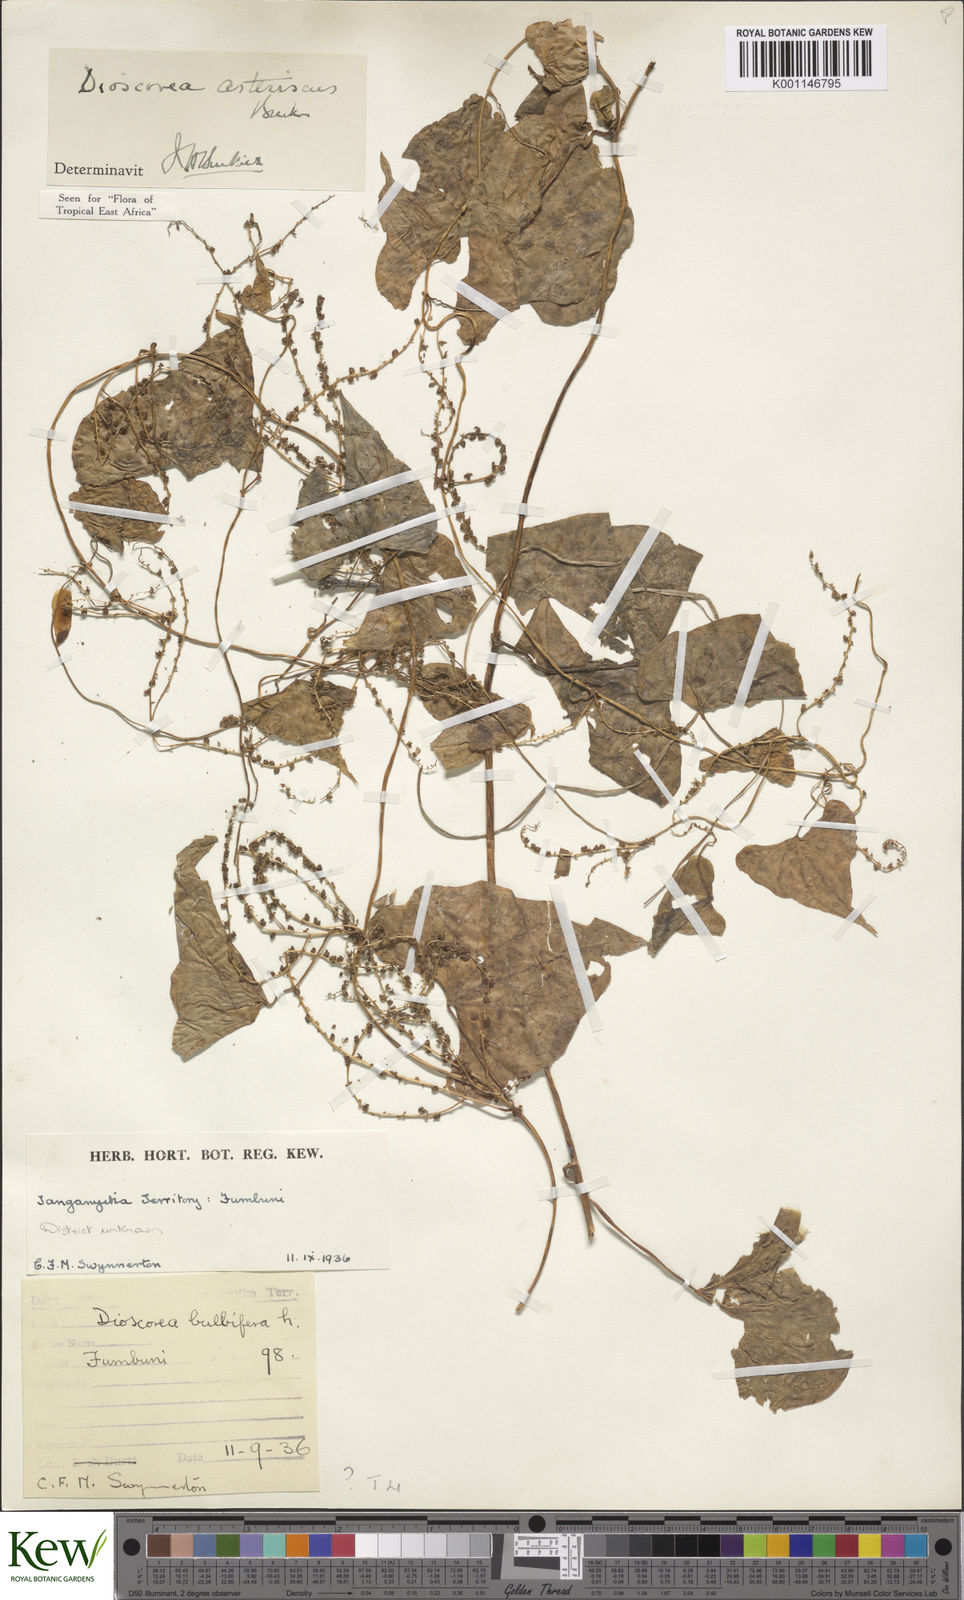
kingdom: Plantae
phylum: Tracheophyta
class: Liliopsida
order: Dioscoreales
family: Dioscoreaceae
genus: Dioscorea
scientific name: Dioscorea asteriscus
